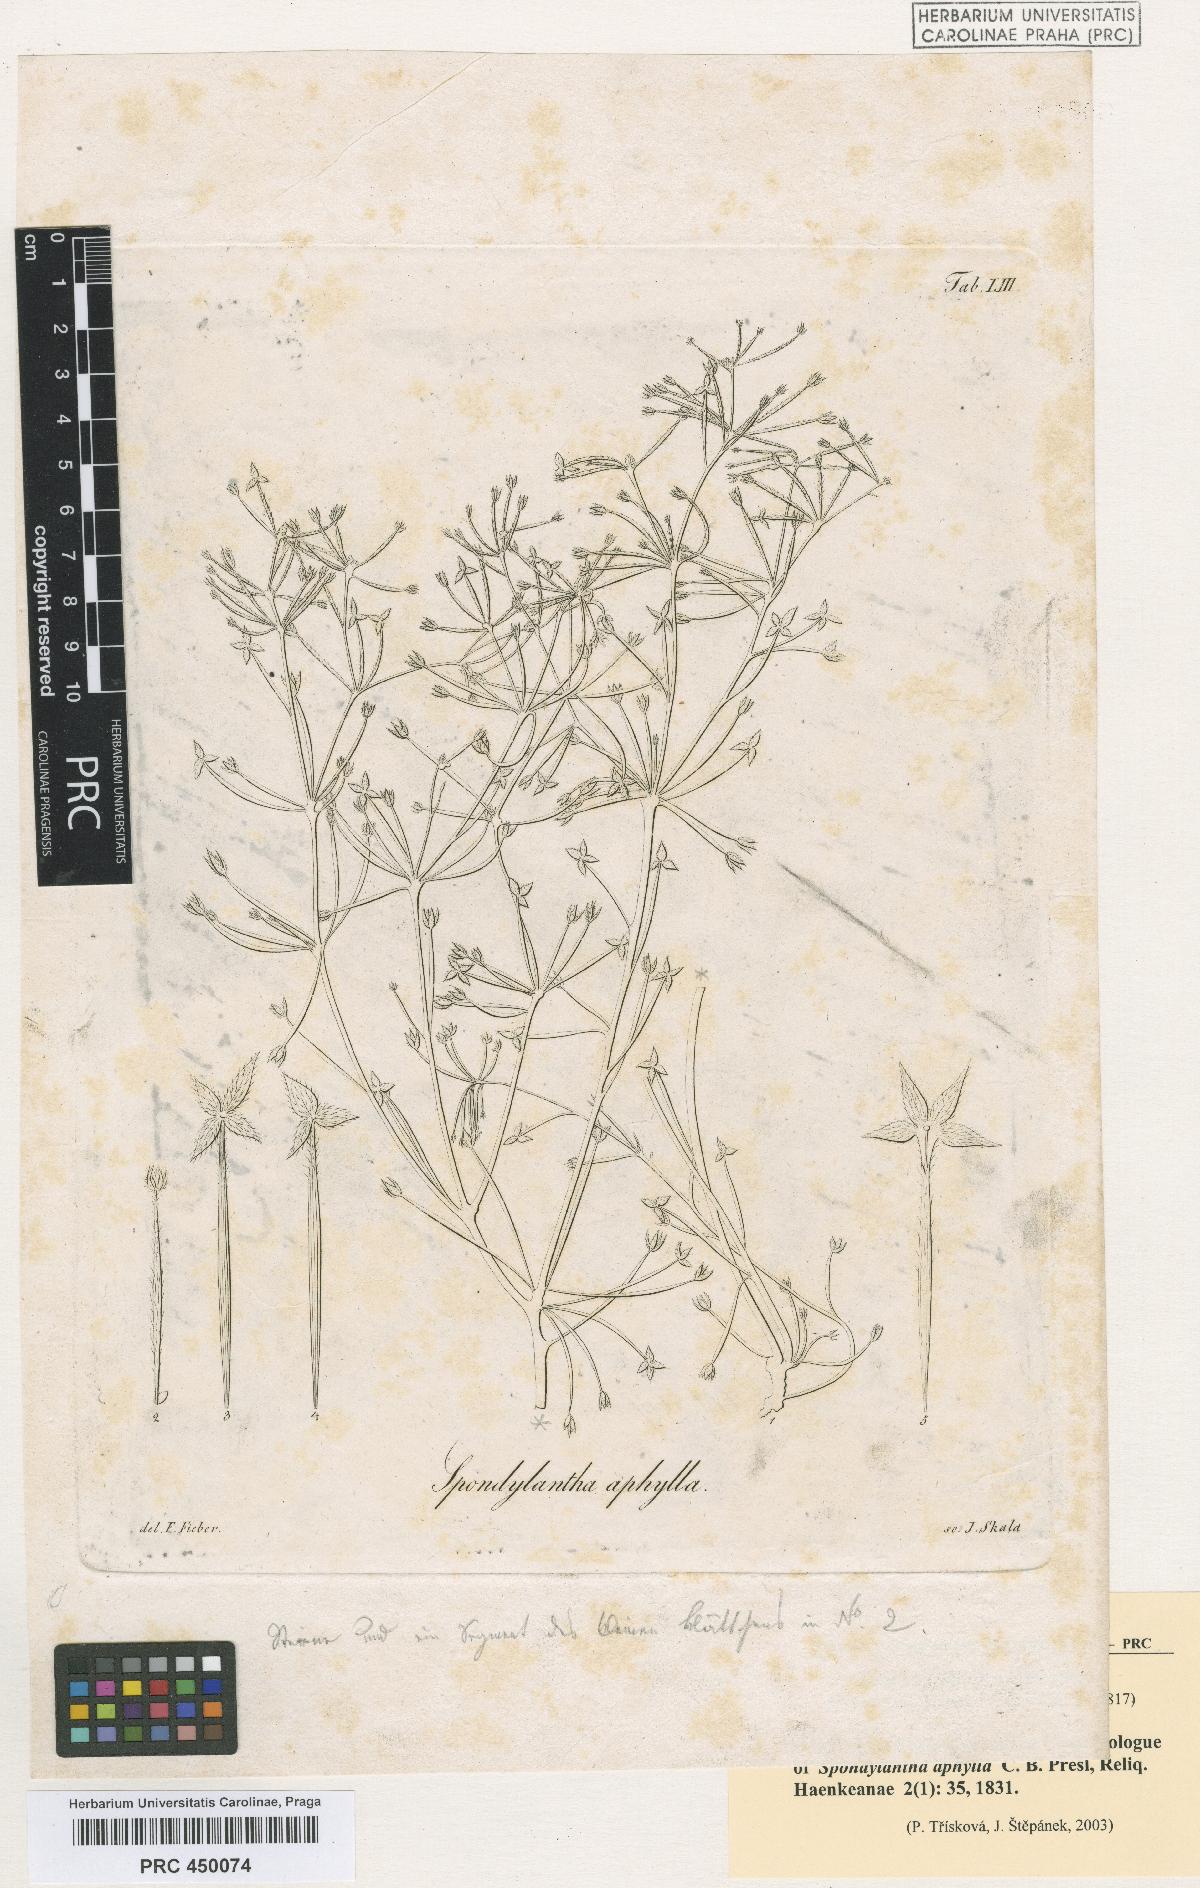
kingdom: Plantae
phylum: Tracheophyta
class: Magnoliopsida
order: Vitales
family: Vitaceae
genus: Cissus
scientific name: Cissus verticillata
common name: Princess vine
